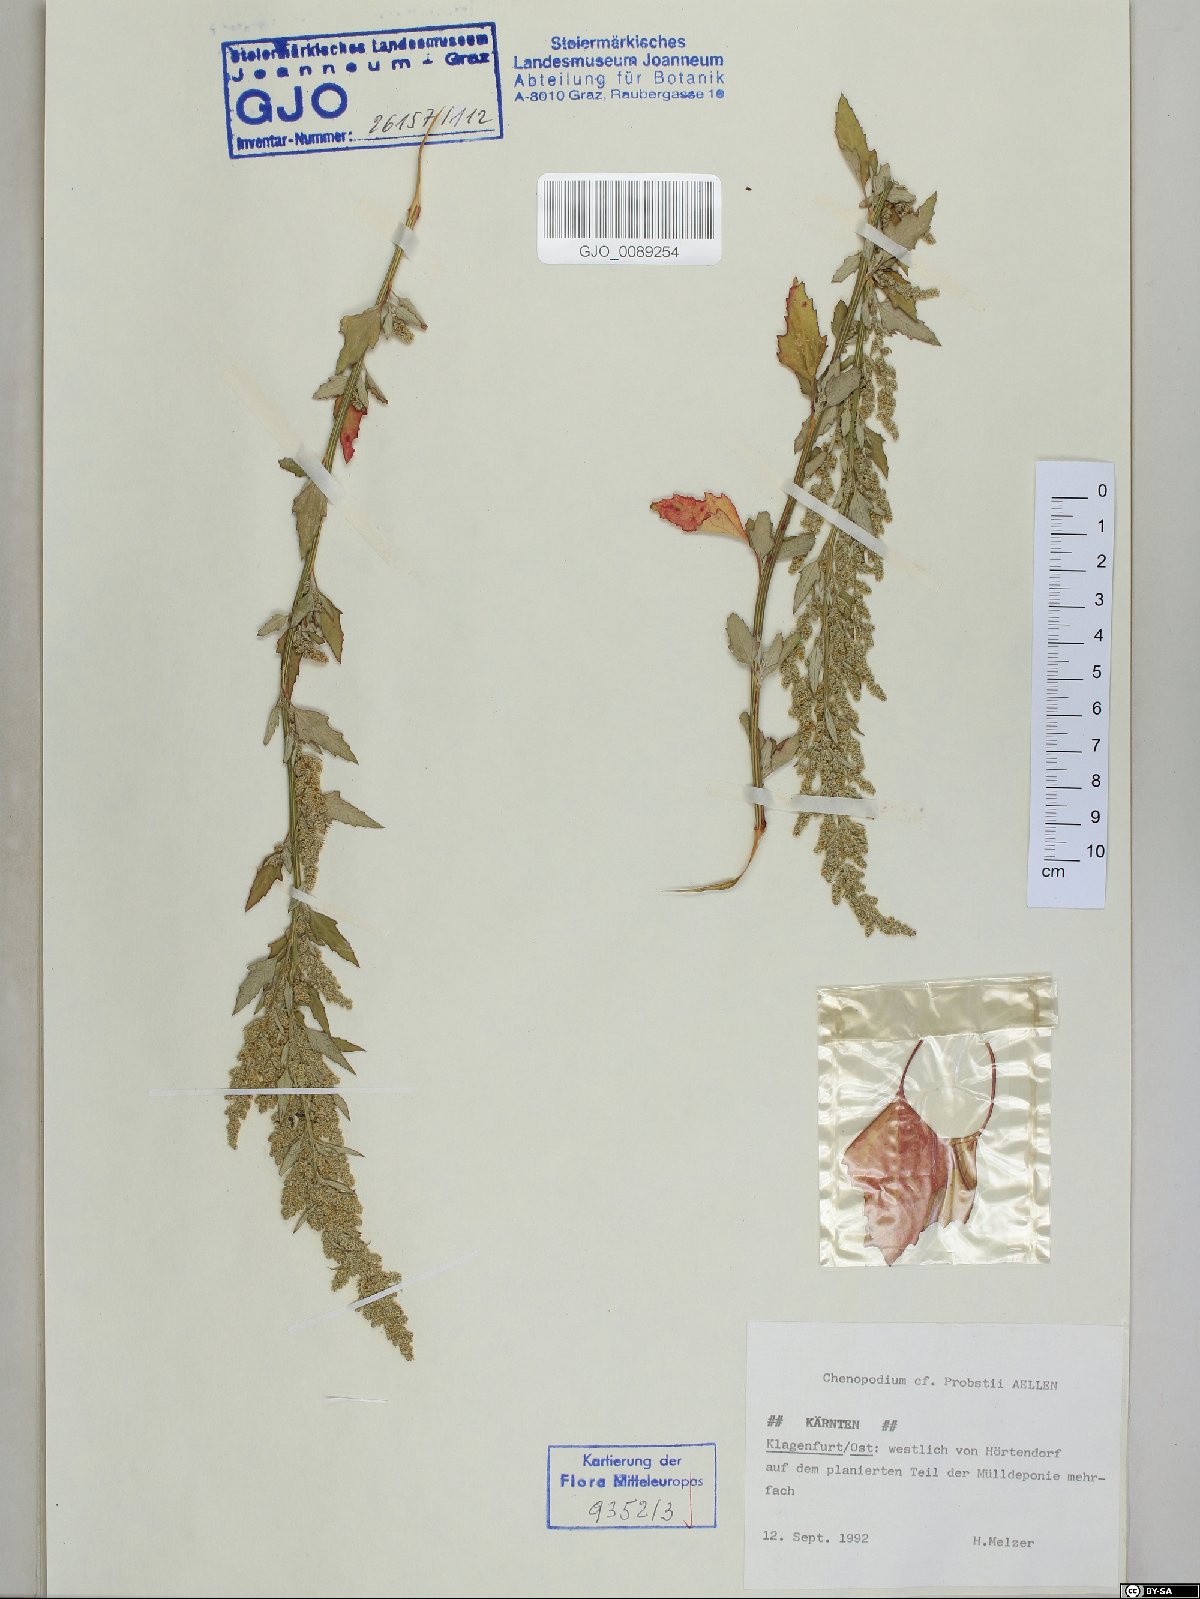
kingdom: Plantae
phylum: Tracheophyta
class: Magnoliopsida
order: Caryophyllales
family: Amaranthaceae
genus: Chenopodium
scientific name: Chenopodium probstii
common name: Probst's goosefoot
